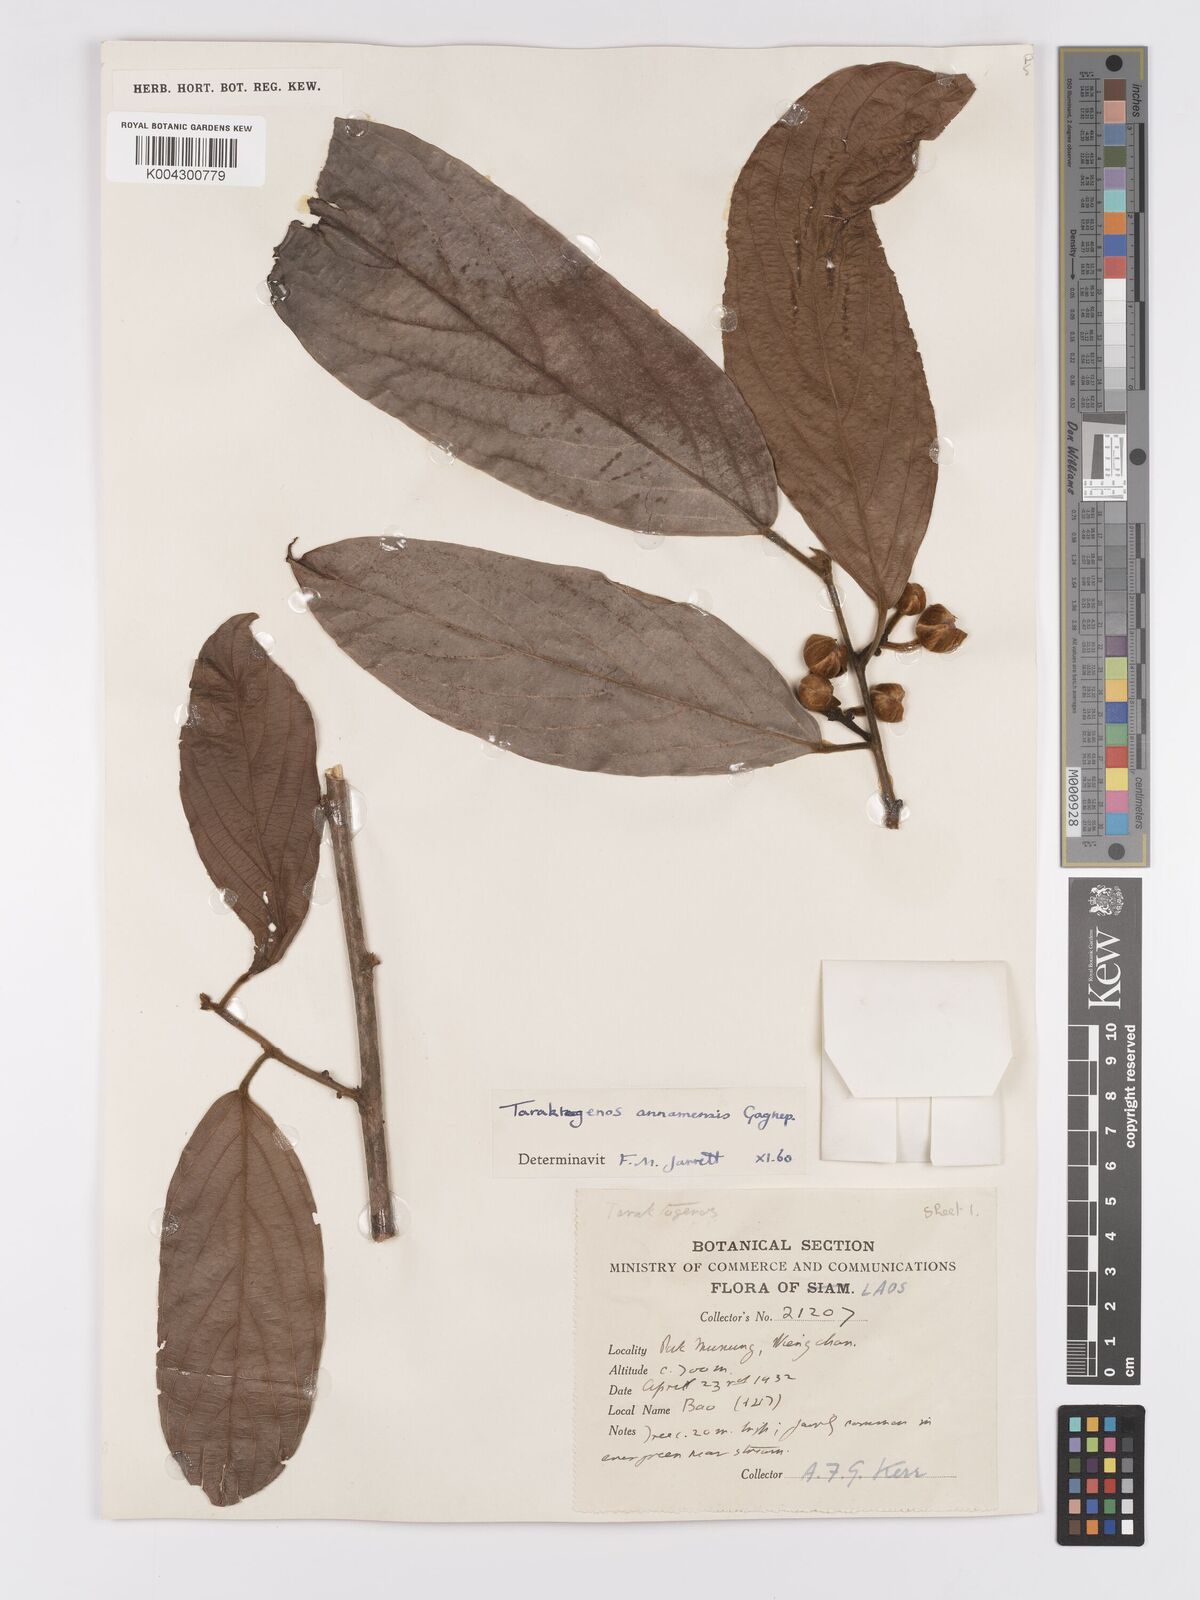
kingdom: Plantae
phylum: Tracheophyta
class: Magnoliopsida
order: Malpighiales
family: Achariaceae
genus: Hydnocarpus
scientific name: Hydnocarpus
